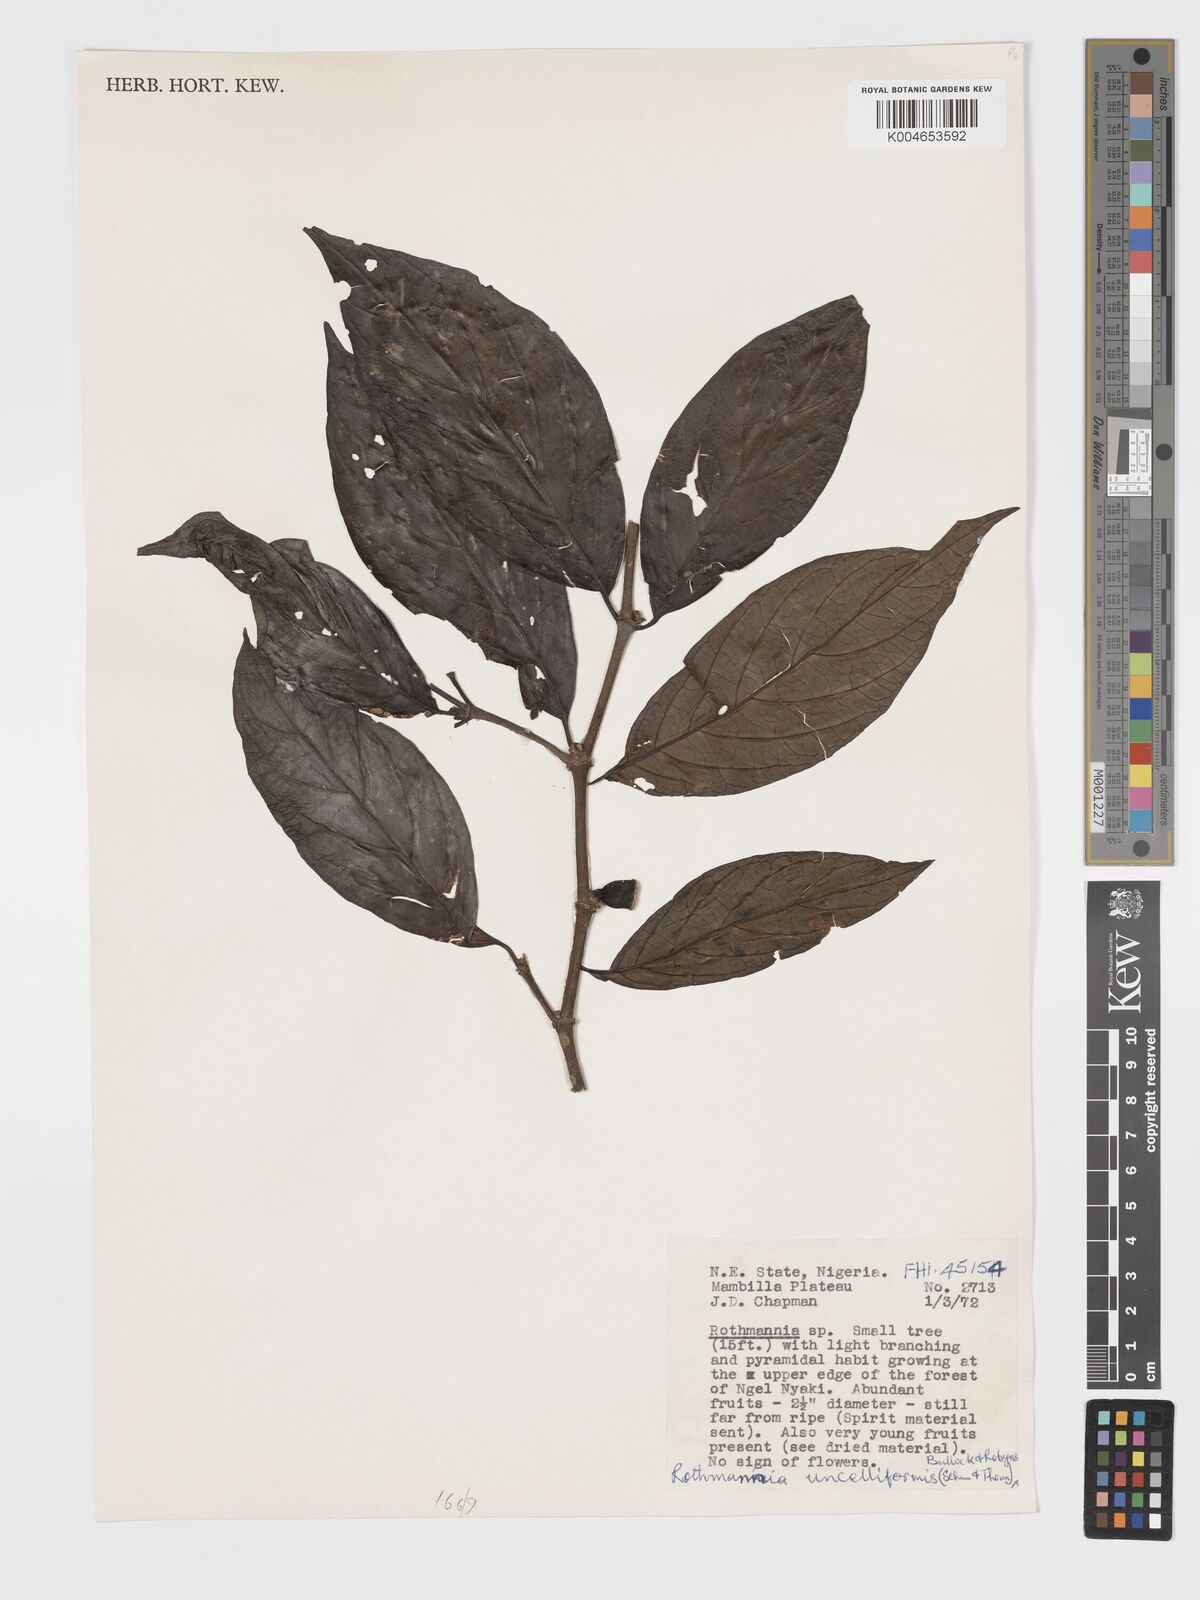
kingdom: Plantae
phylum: Tracheophyta
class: Magnoliopsida
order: Gentianales
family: Rubiaceae
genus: Rothmannia
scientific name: Rothmannia urcelliformis
